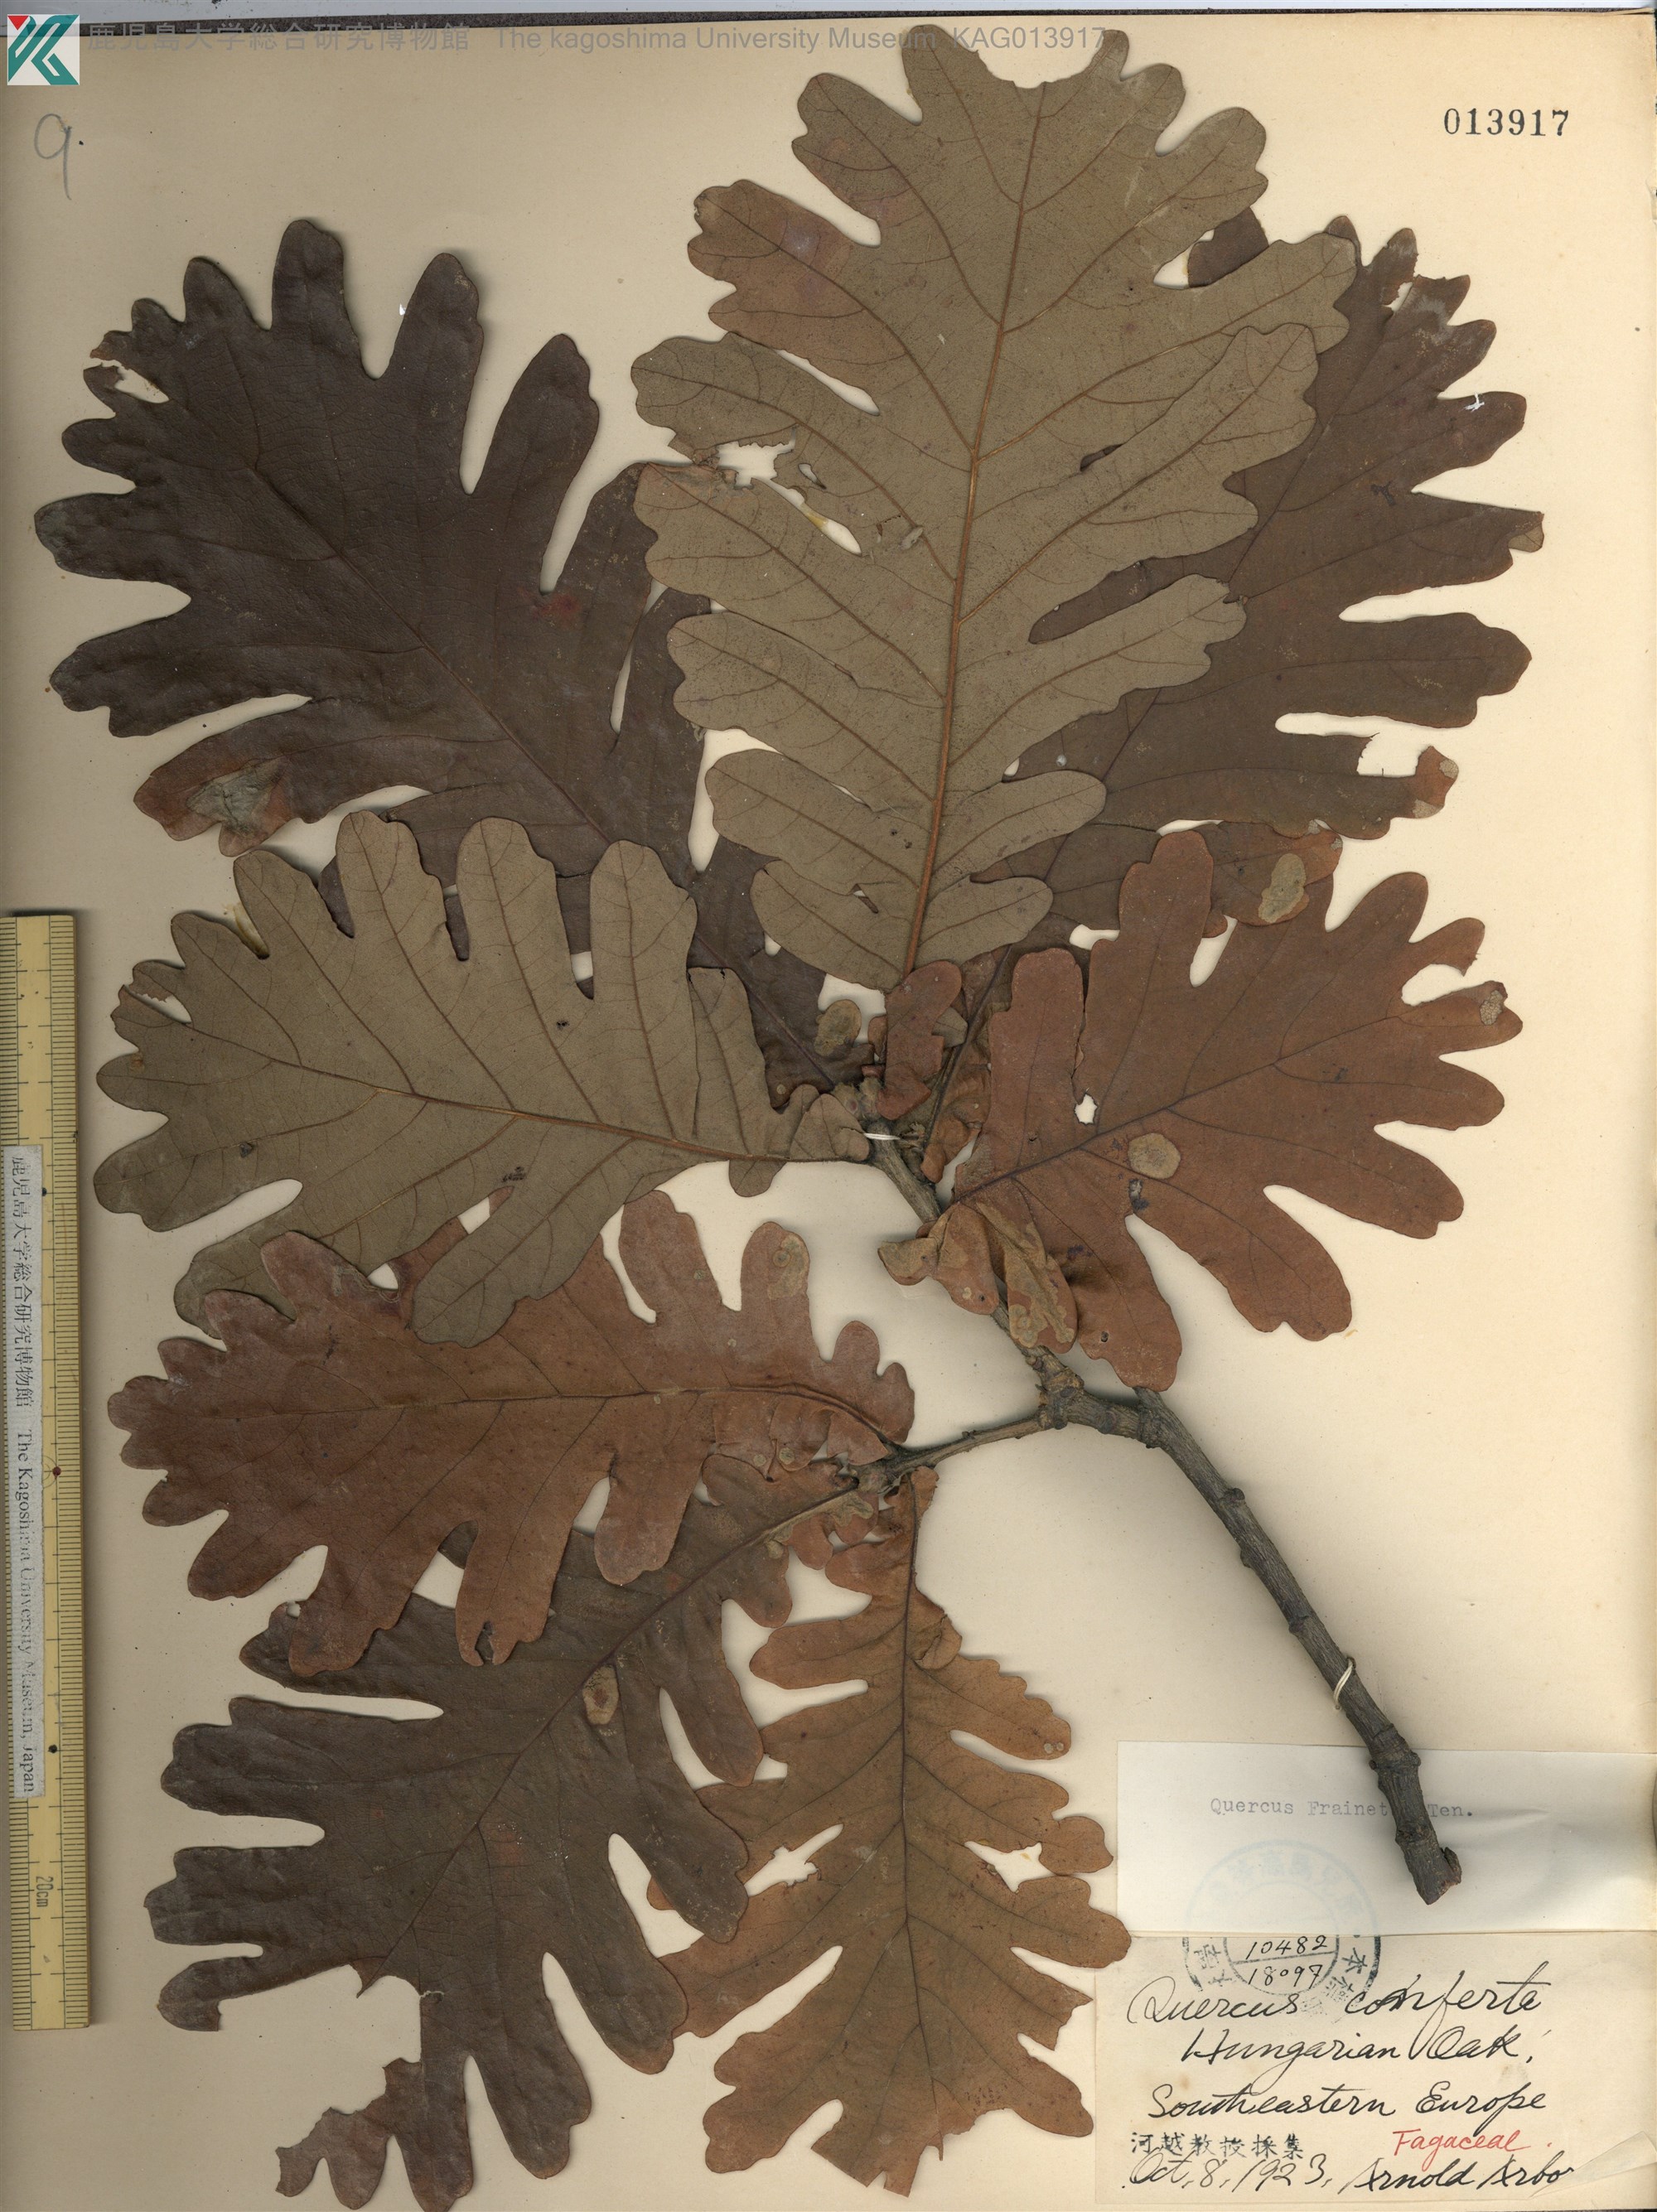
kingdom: Plantae
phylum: Tracheophyta
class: Magnoliopsida
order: Fagales
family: Fagaceae
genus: Quercus
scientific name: Quercus conferta
